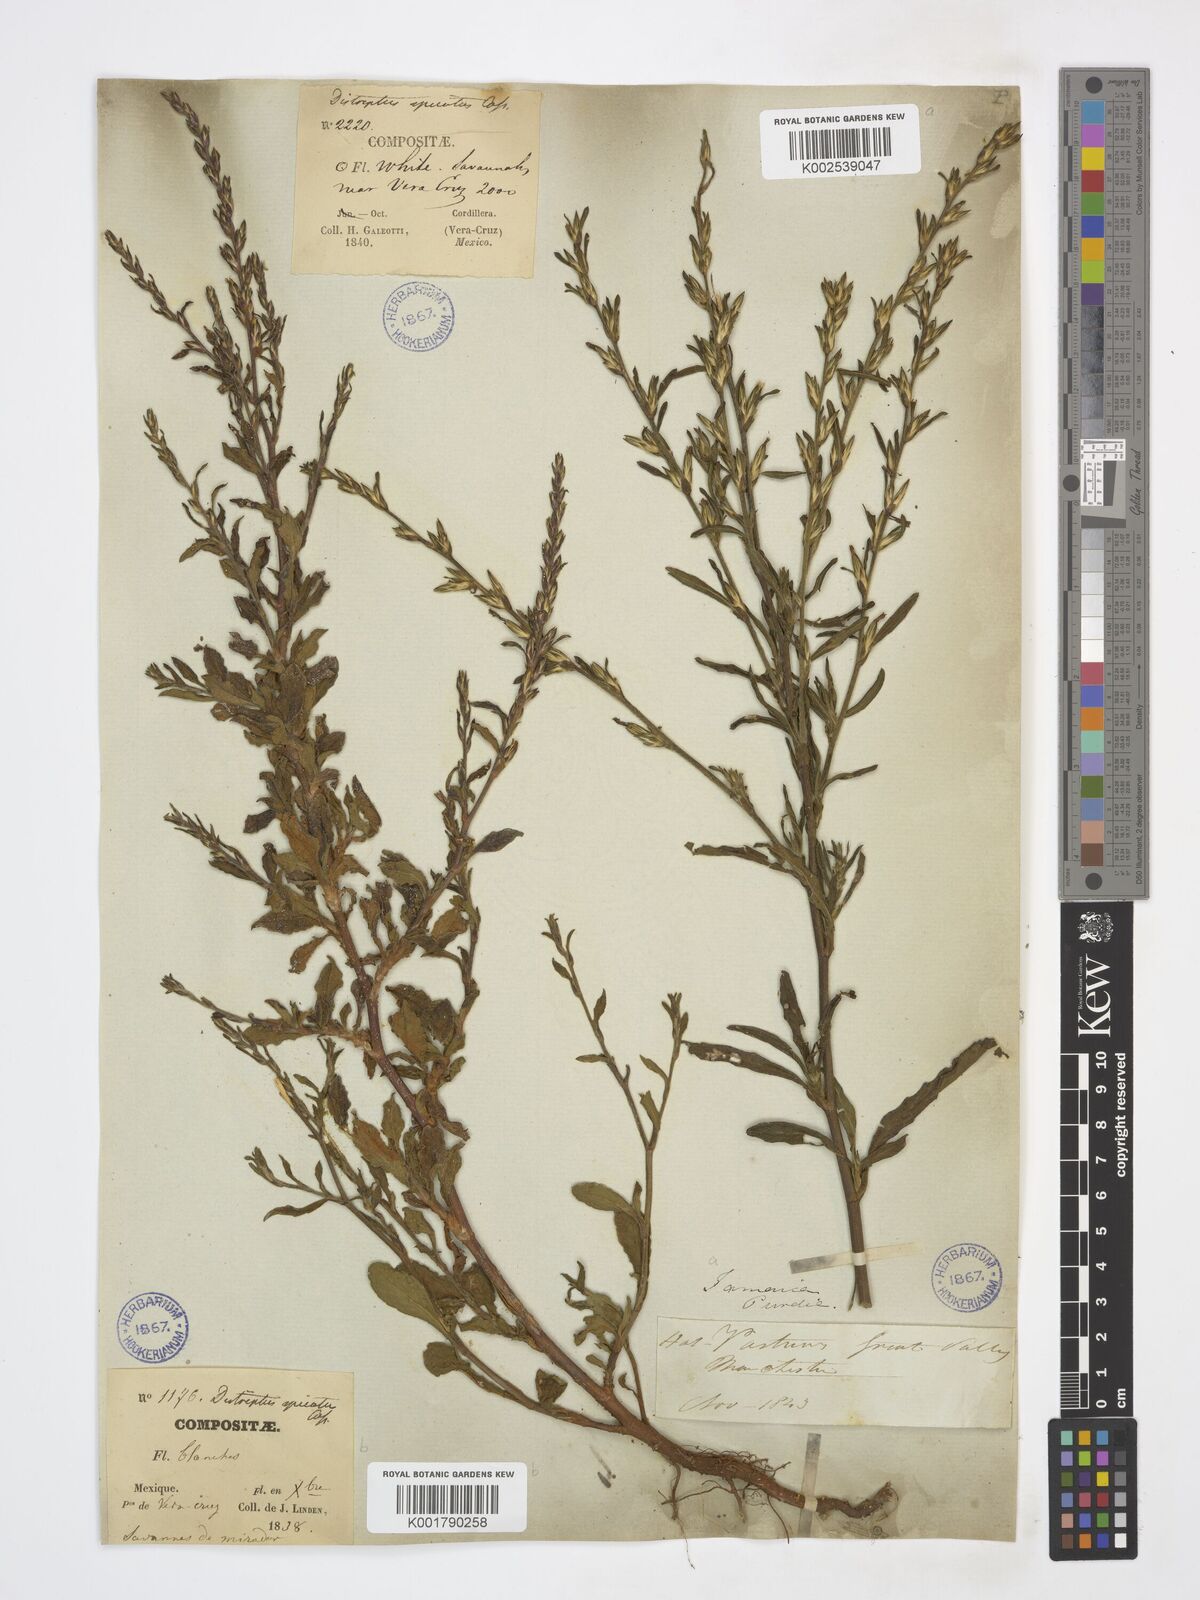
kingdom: Plantae
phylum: Tracheophyta
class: Magnoliopsida
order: Asterales
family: Asteraceae
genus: Pseudelephantopus
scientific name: Pseudelephantopus spicatus
